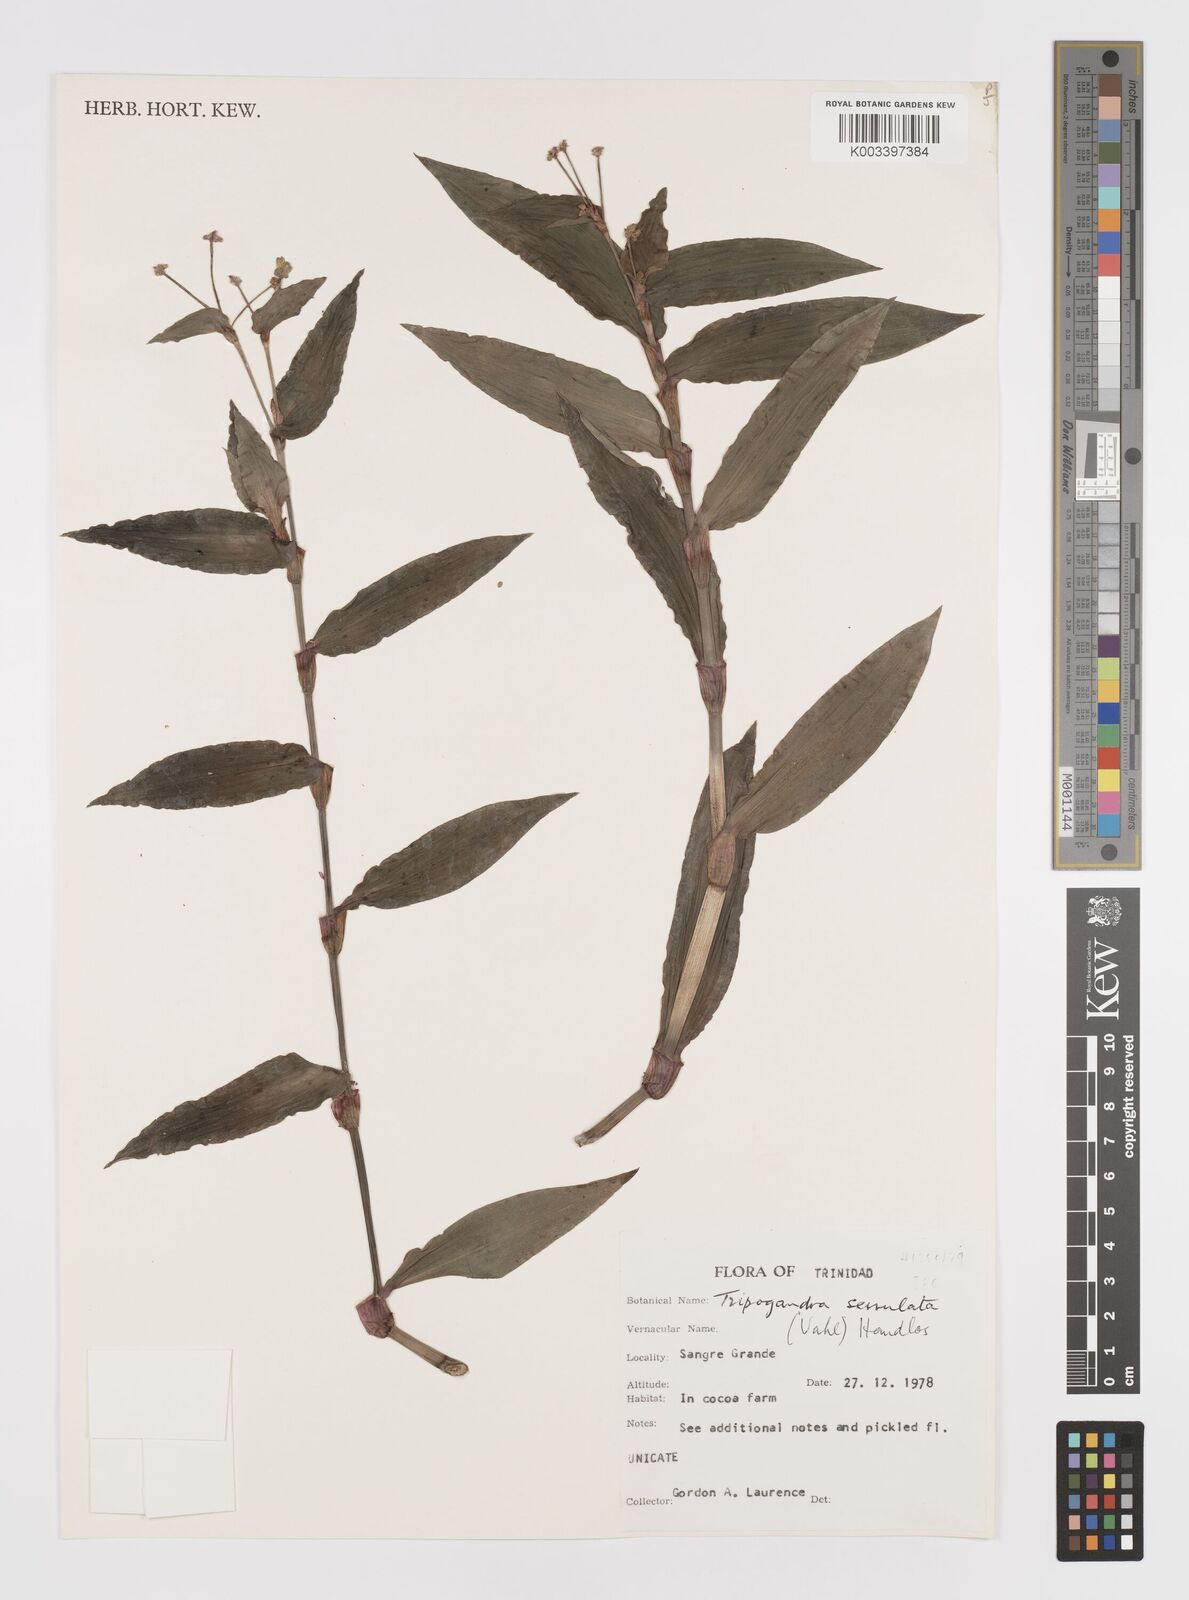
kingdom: Plantae
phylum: Tracheophyta
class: Liliopsida
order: Commelinales
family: Commelinaceae
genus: Callisia
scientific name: Callisia serrulata
